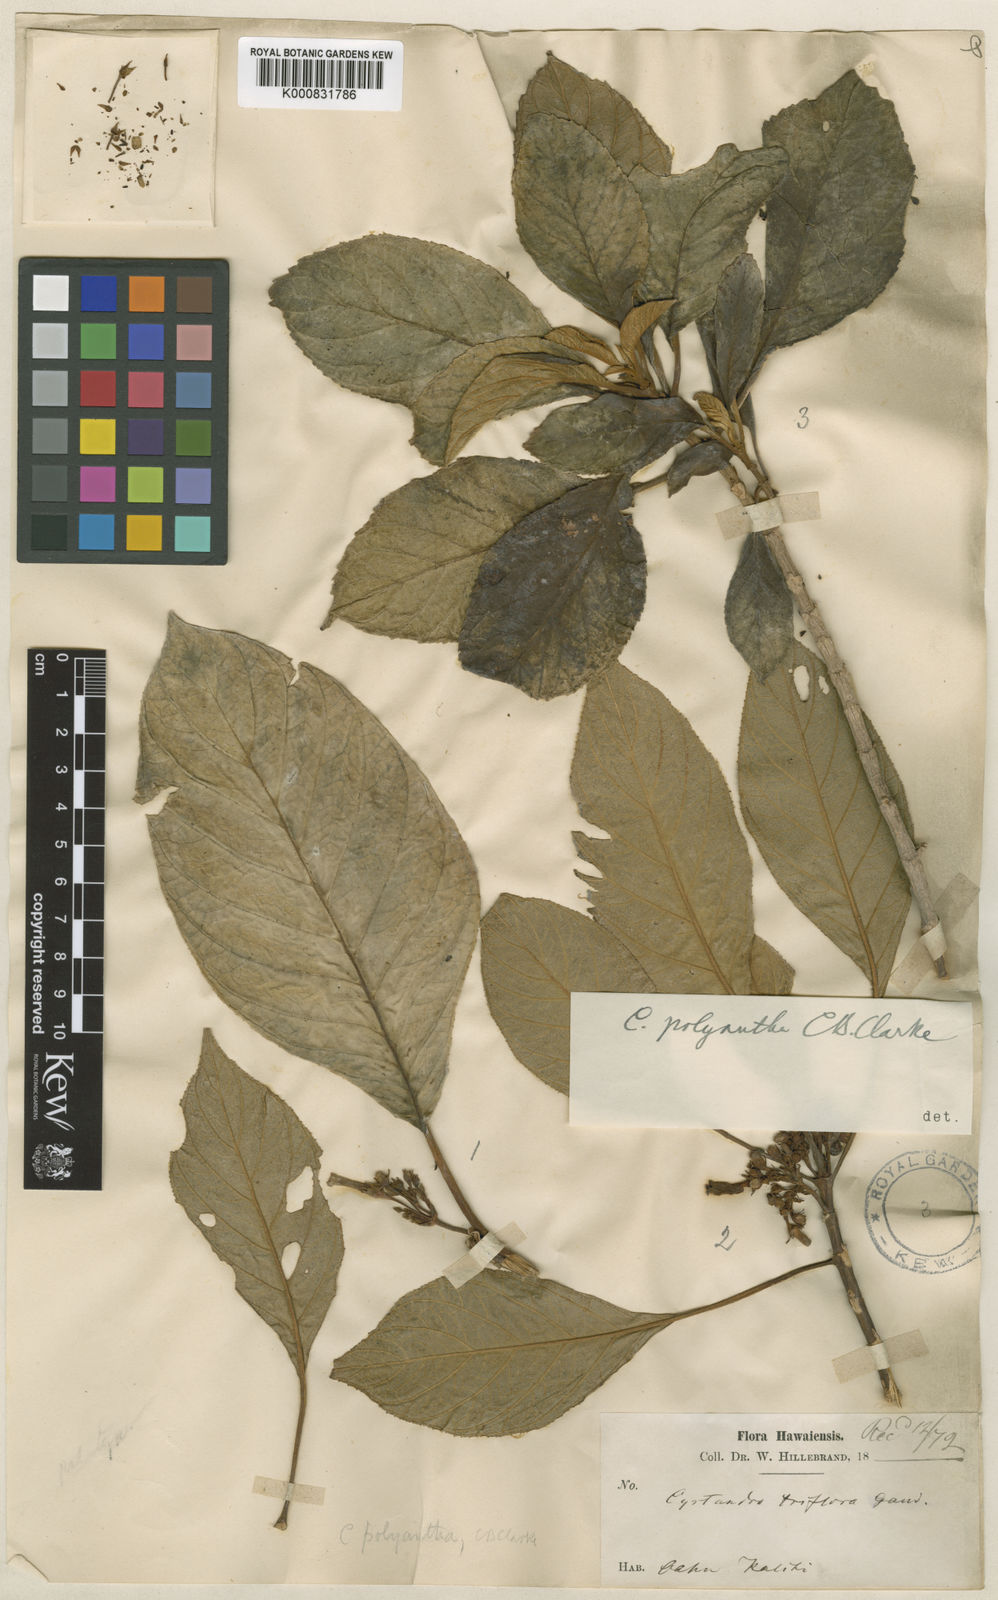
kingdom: Plantae
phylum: Tracheophyta
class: Magnoliopsida
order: Lamiales
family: Gesneriaceae
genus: Cyrtandra
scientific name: Cyrtandra polyantha
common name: Niu valley cyrtandra
